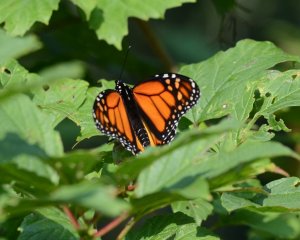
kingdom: Animalia
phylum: Arthropoda
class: Insecta
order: Lepidoptera
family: Nymphalidae
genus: Danaus
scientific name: Danaus plexippus
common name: Monarch
